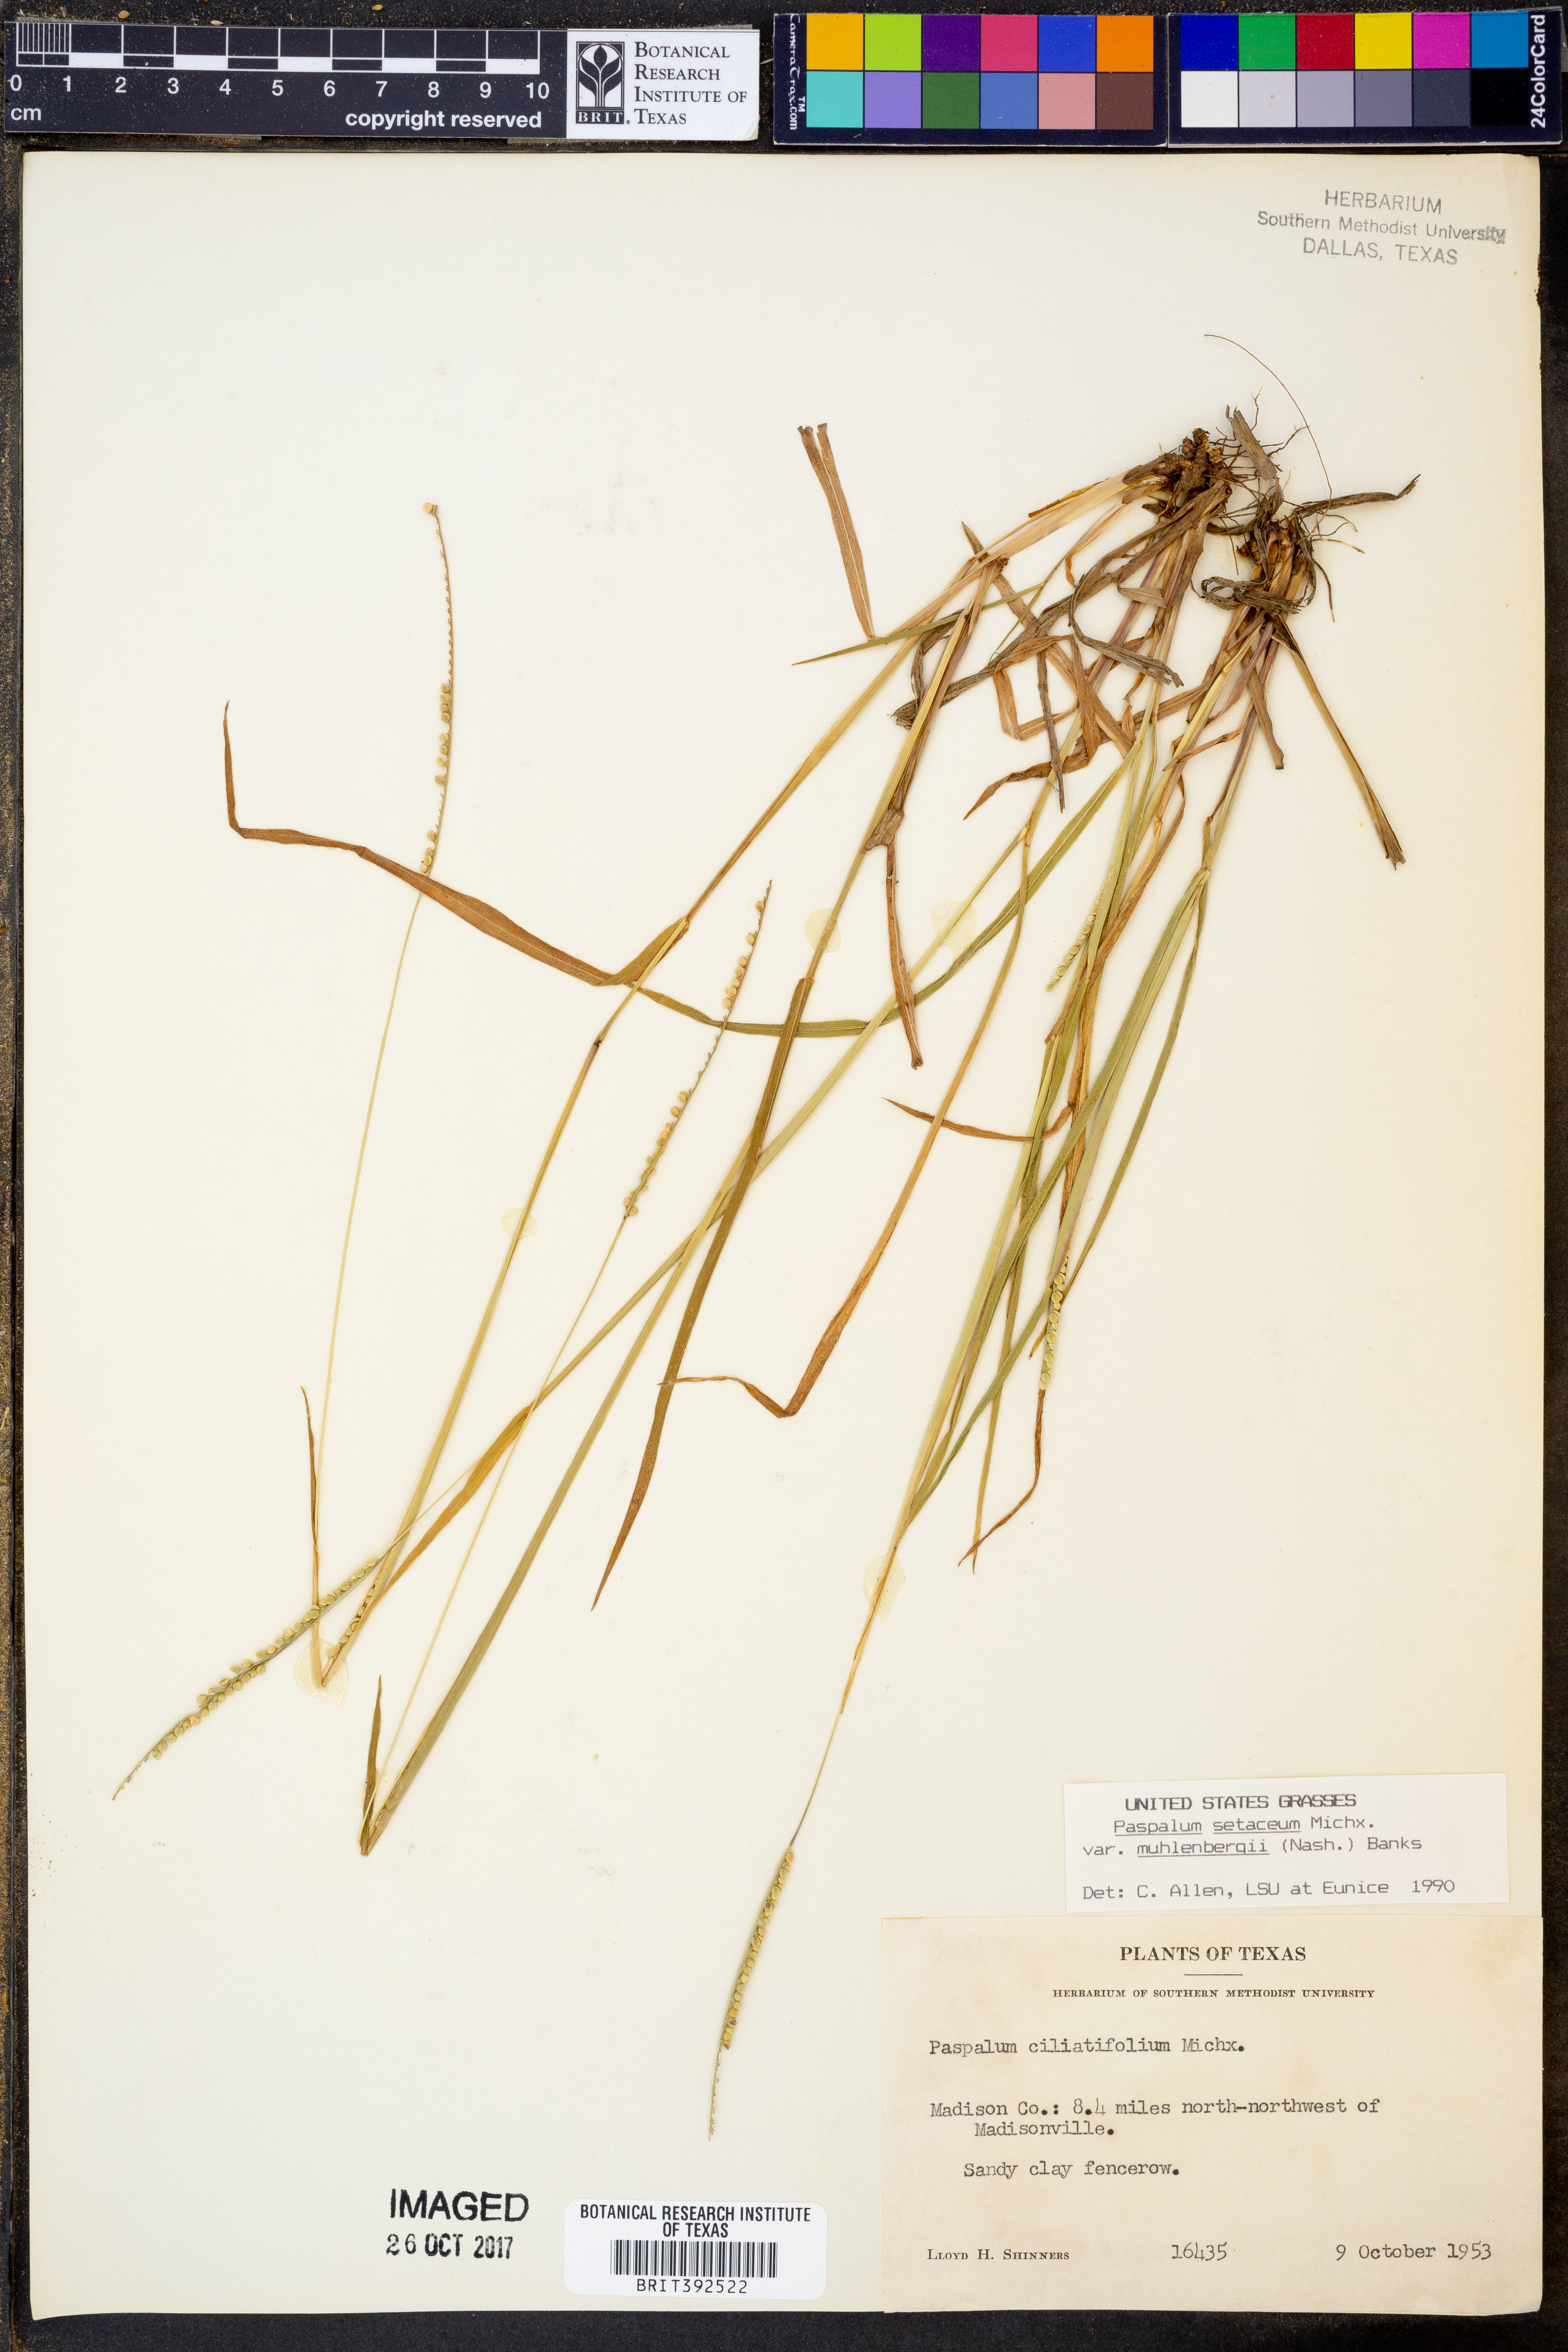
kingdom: Plantae
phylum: Tracheophyta
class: Liliopsida
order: Poales
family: Poaceae
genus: Paspalum
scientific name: Paspalum setaceum
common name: Slender paspalum
